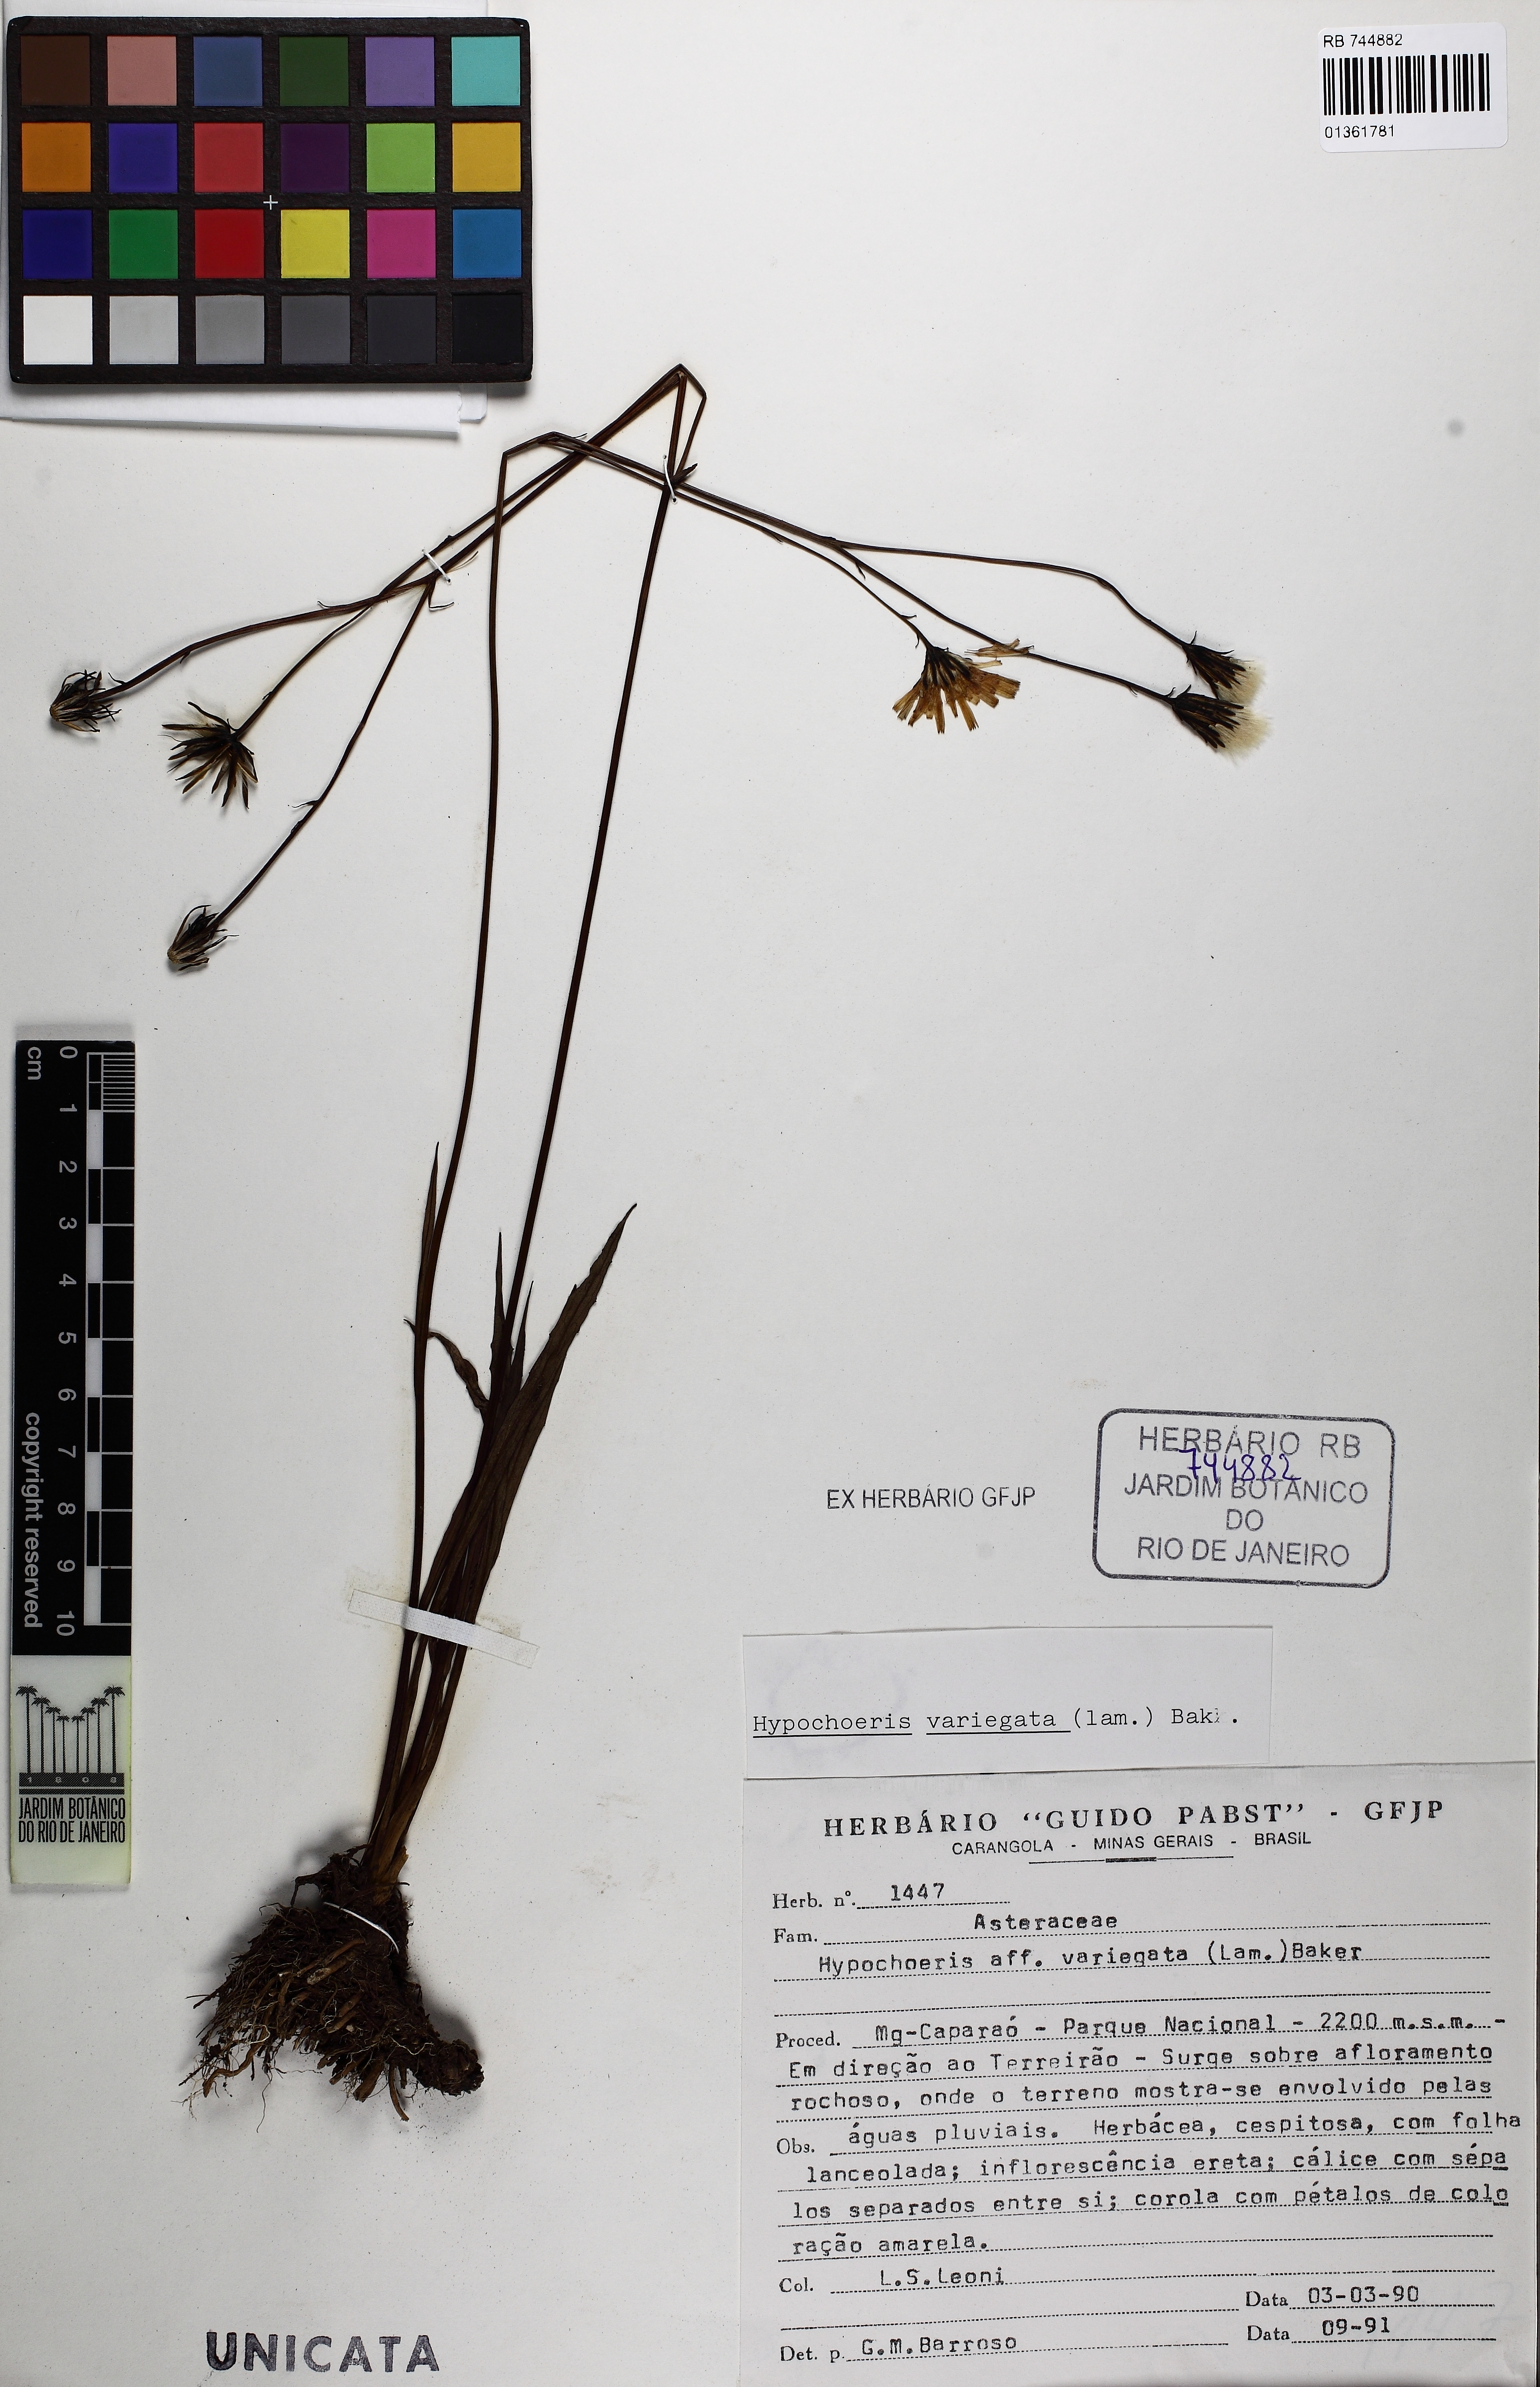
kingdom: Plantae
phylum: Tracheophyta
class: Magnoliopsida
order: Asterales
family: Asteraceae
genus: Hypochaeris
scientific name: Hypochaeris variegata
